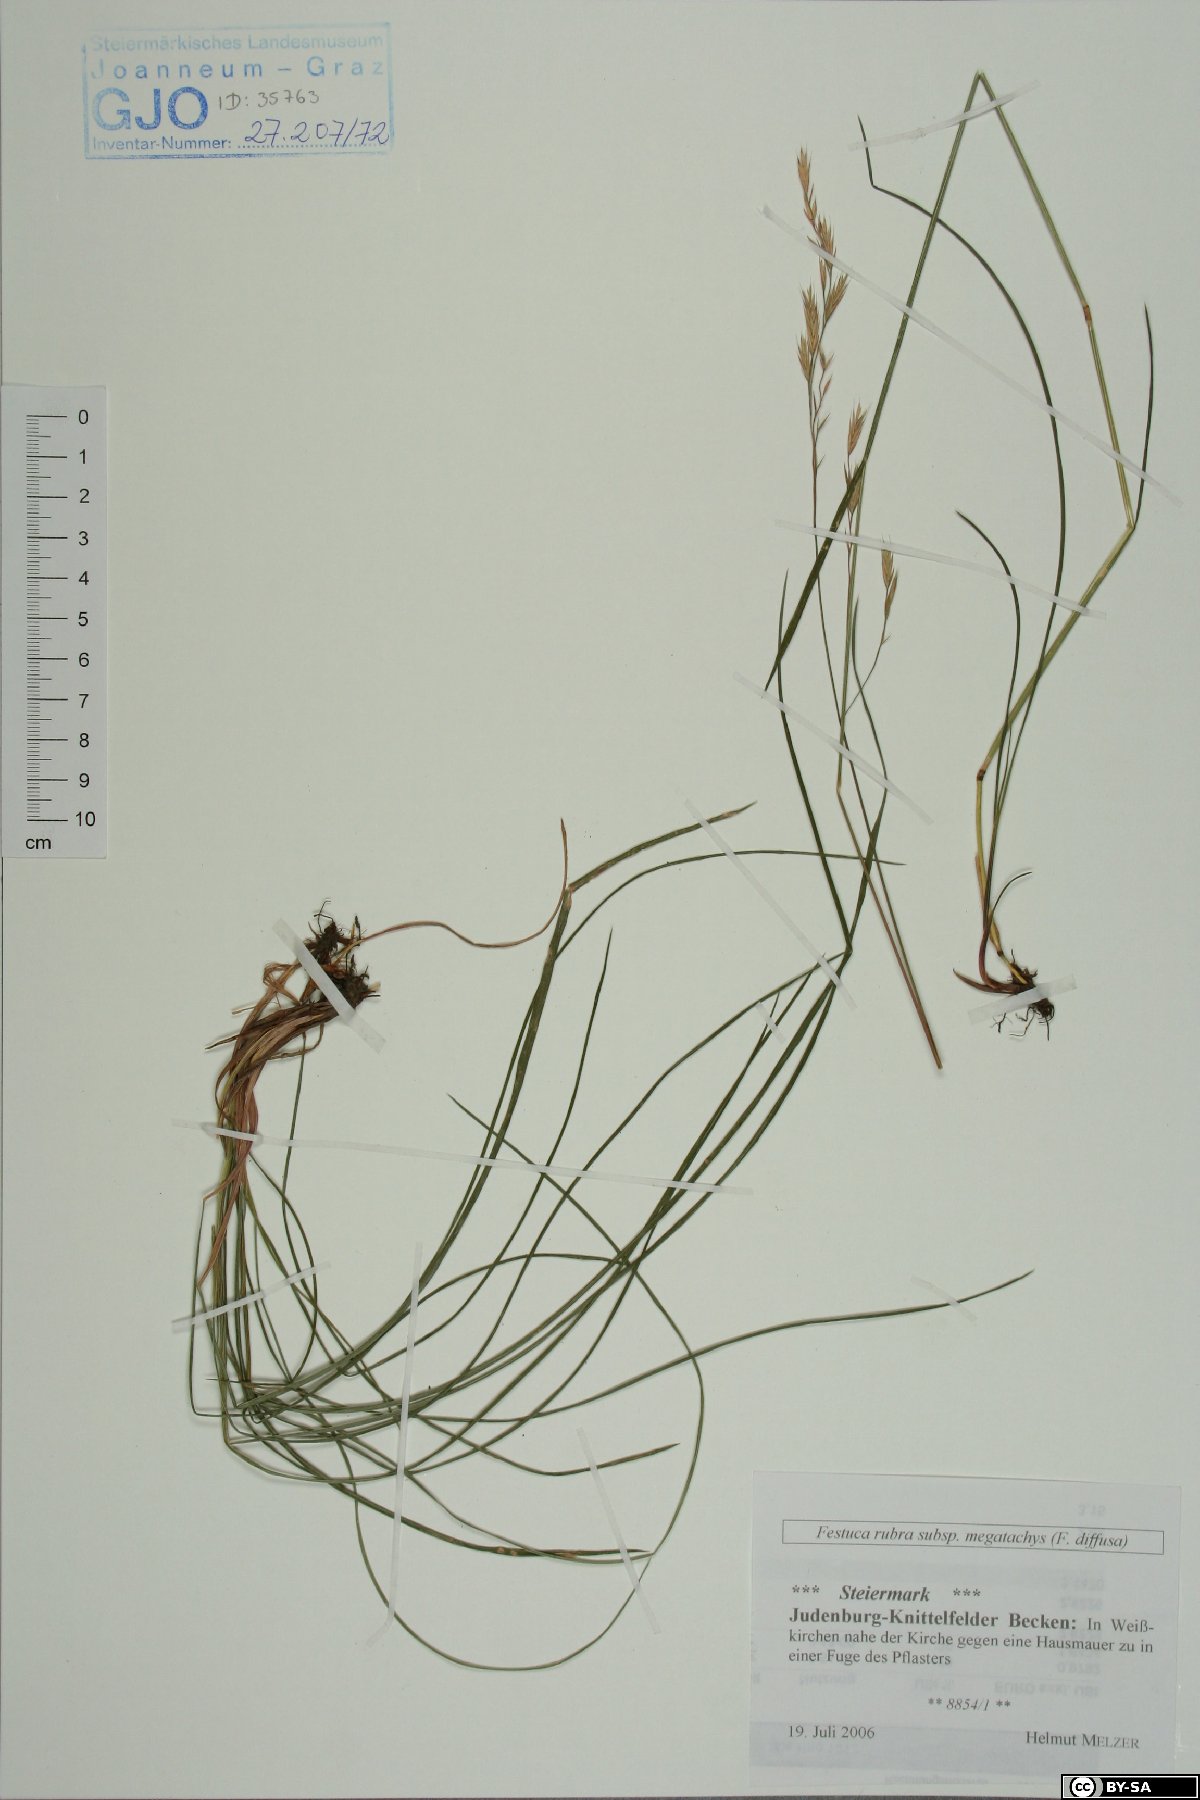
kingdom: Plantae
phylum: Tracheophyta
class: Liliopsida
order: Poales
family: Poaceae
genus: Festuca
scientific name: Festuca rubra
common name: Red fescue
